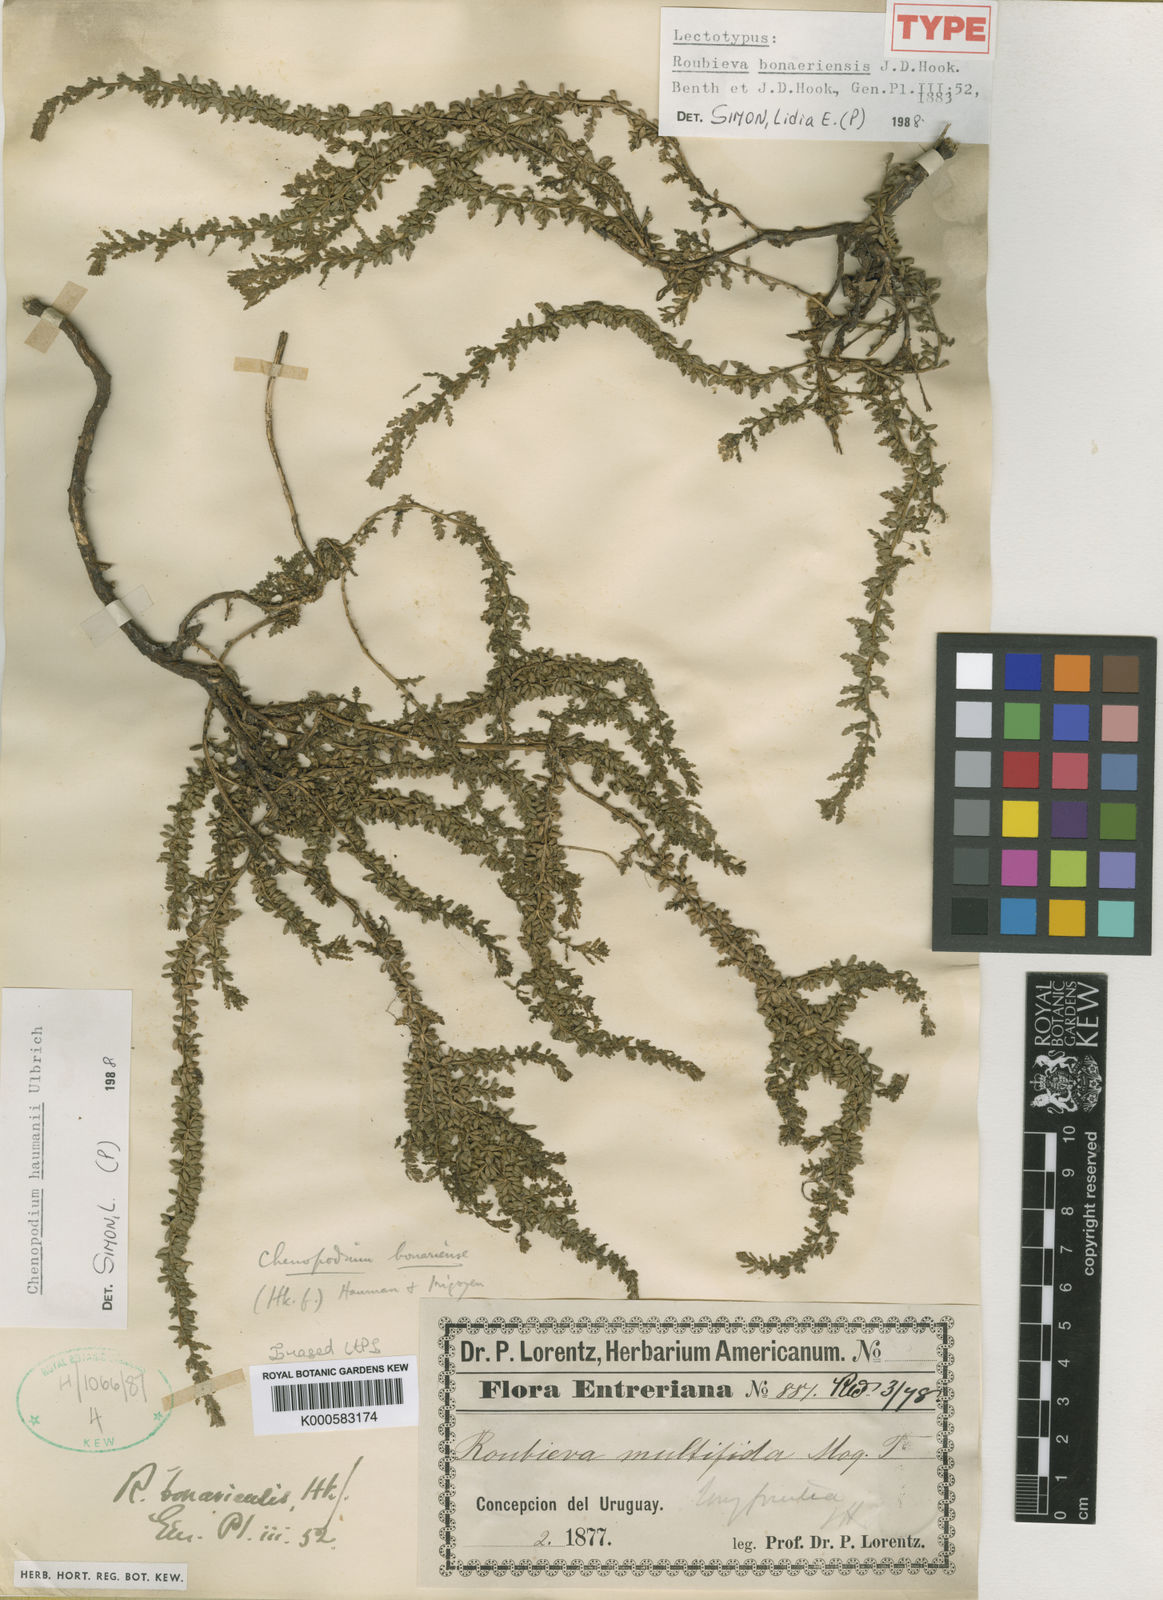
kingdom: Plantae
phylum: Tracheophyta
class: Magnoliopsida
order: Caryophyllales
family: Amaranthaceae
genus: Dysphania
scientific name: Dysphania bonariensis
